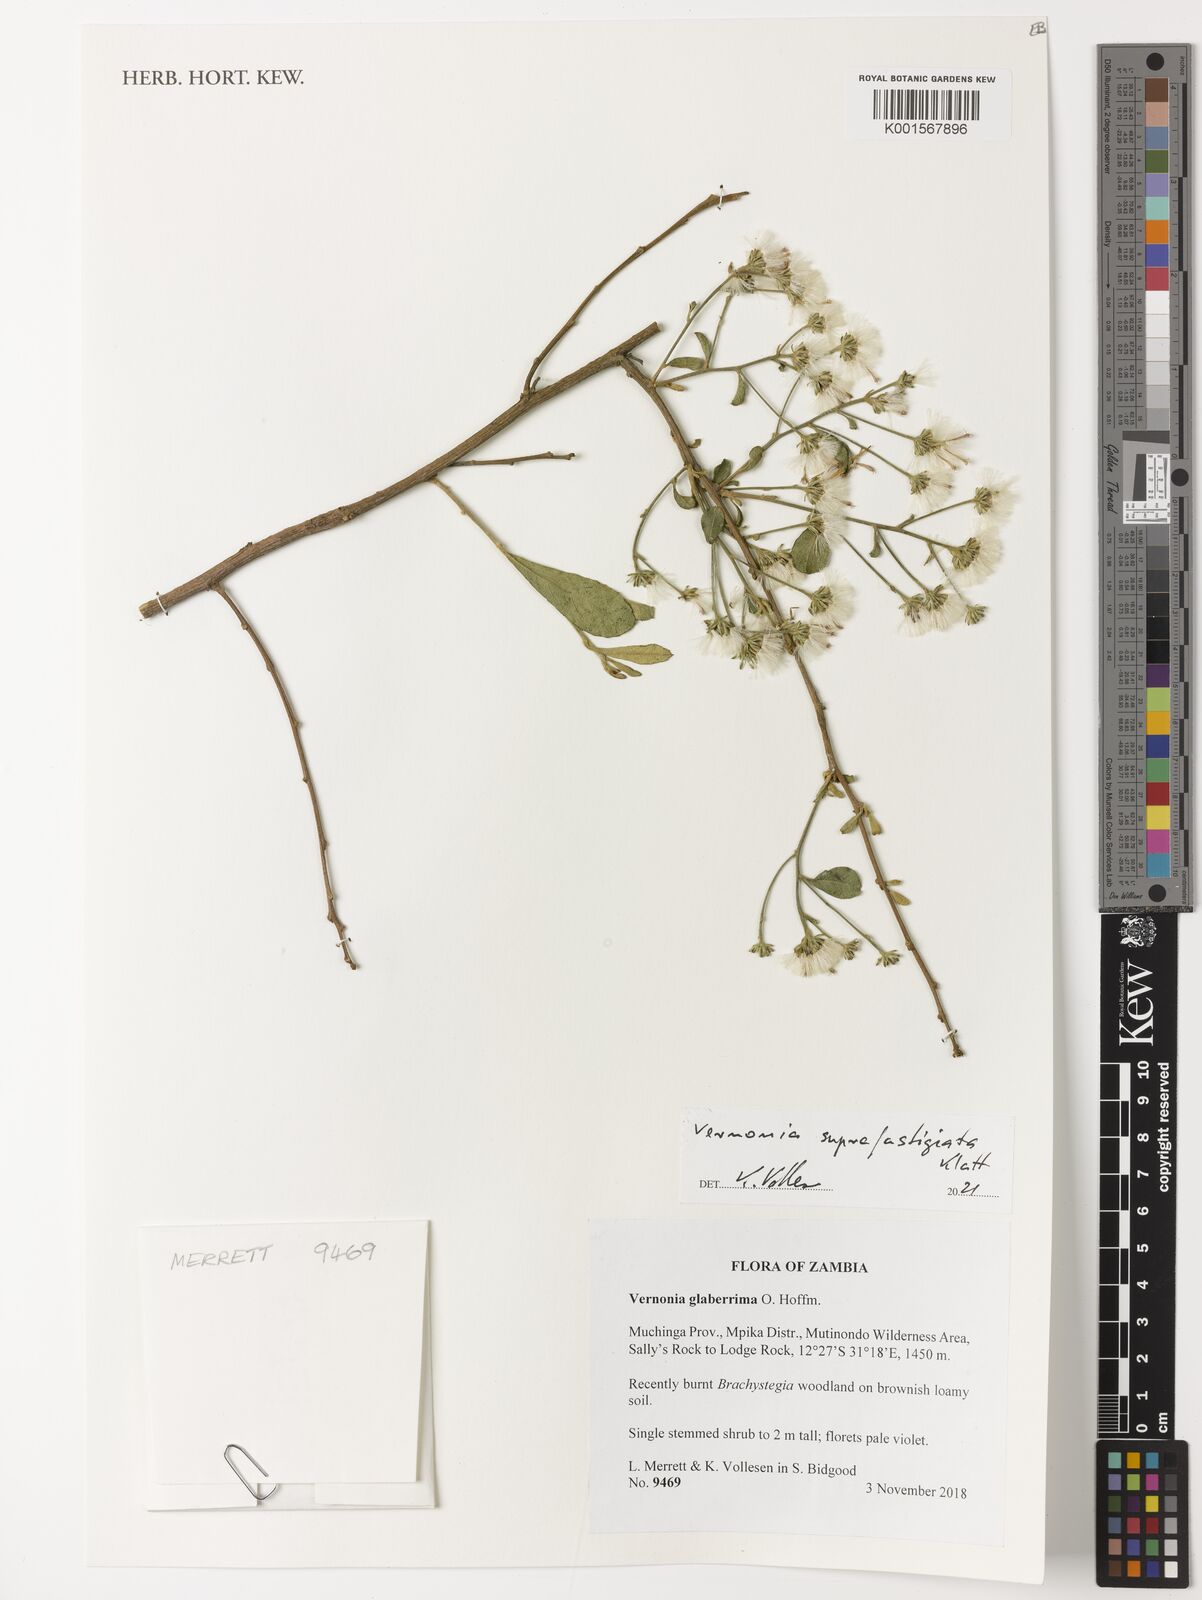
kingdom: Plantae
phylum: Tracheophyta
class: Magnoliopsida
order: Asterales
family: Asteraceae
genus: Vernonia
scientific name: Vernonia suprafastigiata
